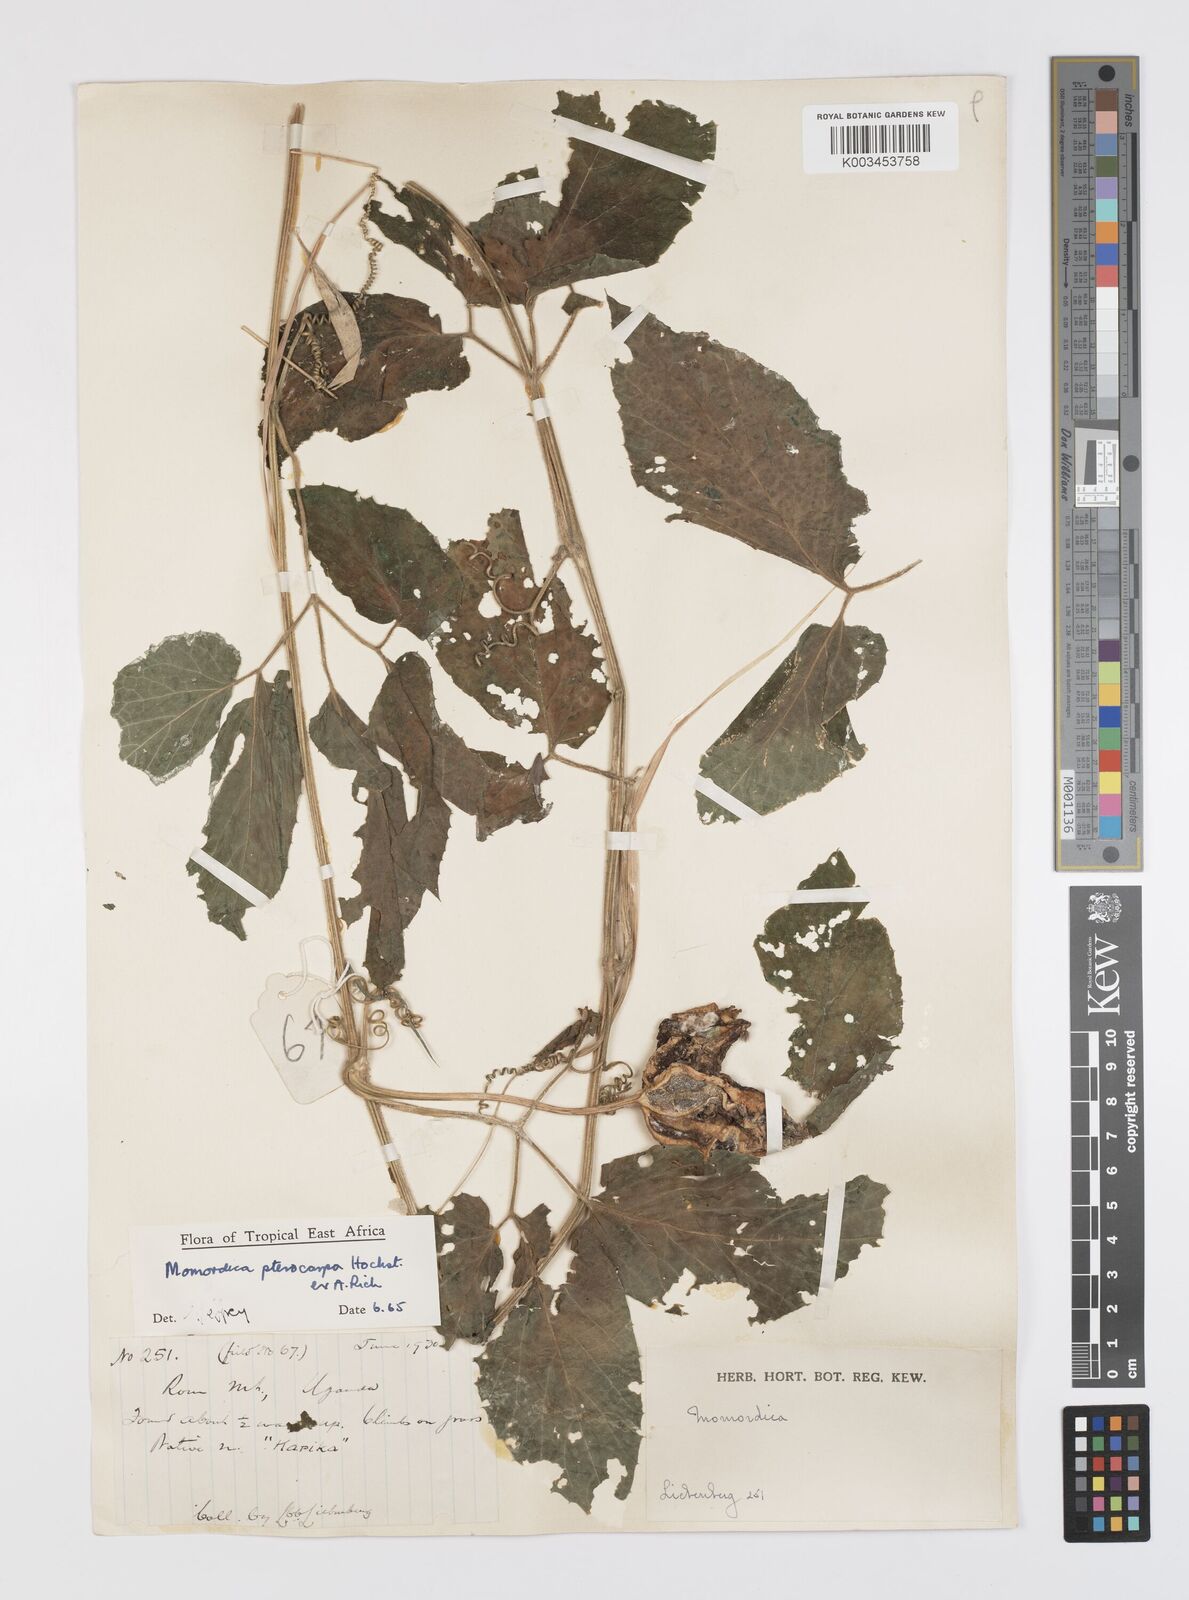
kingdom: Plantae
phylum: Tracheophyta
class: Magnoliopsida
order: Cucurbitales
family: Cucurbitaceae
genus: Momordica
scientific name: Momordica pterocarpa
